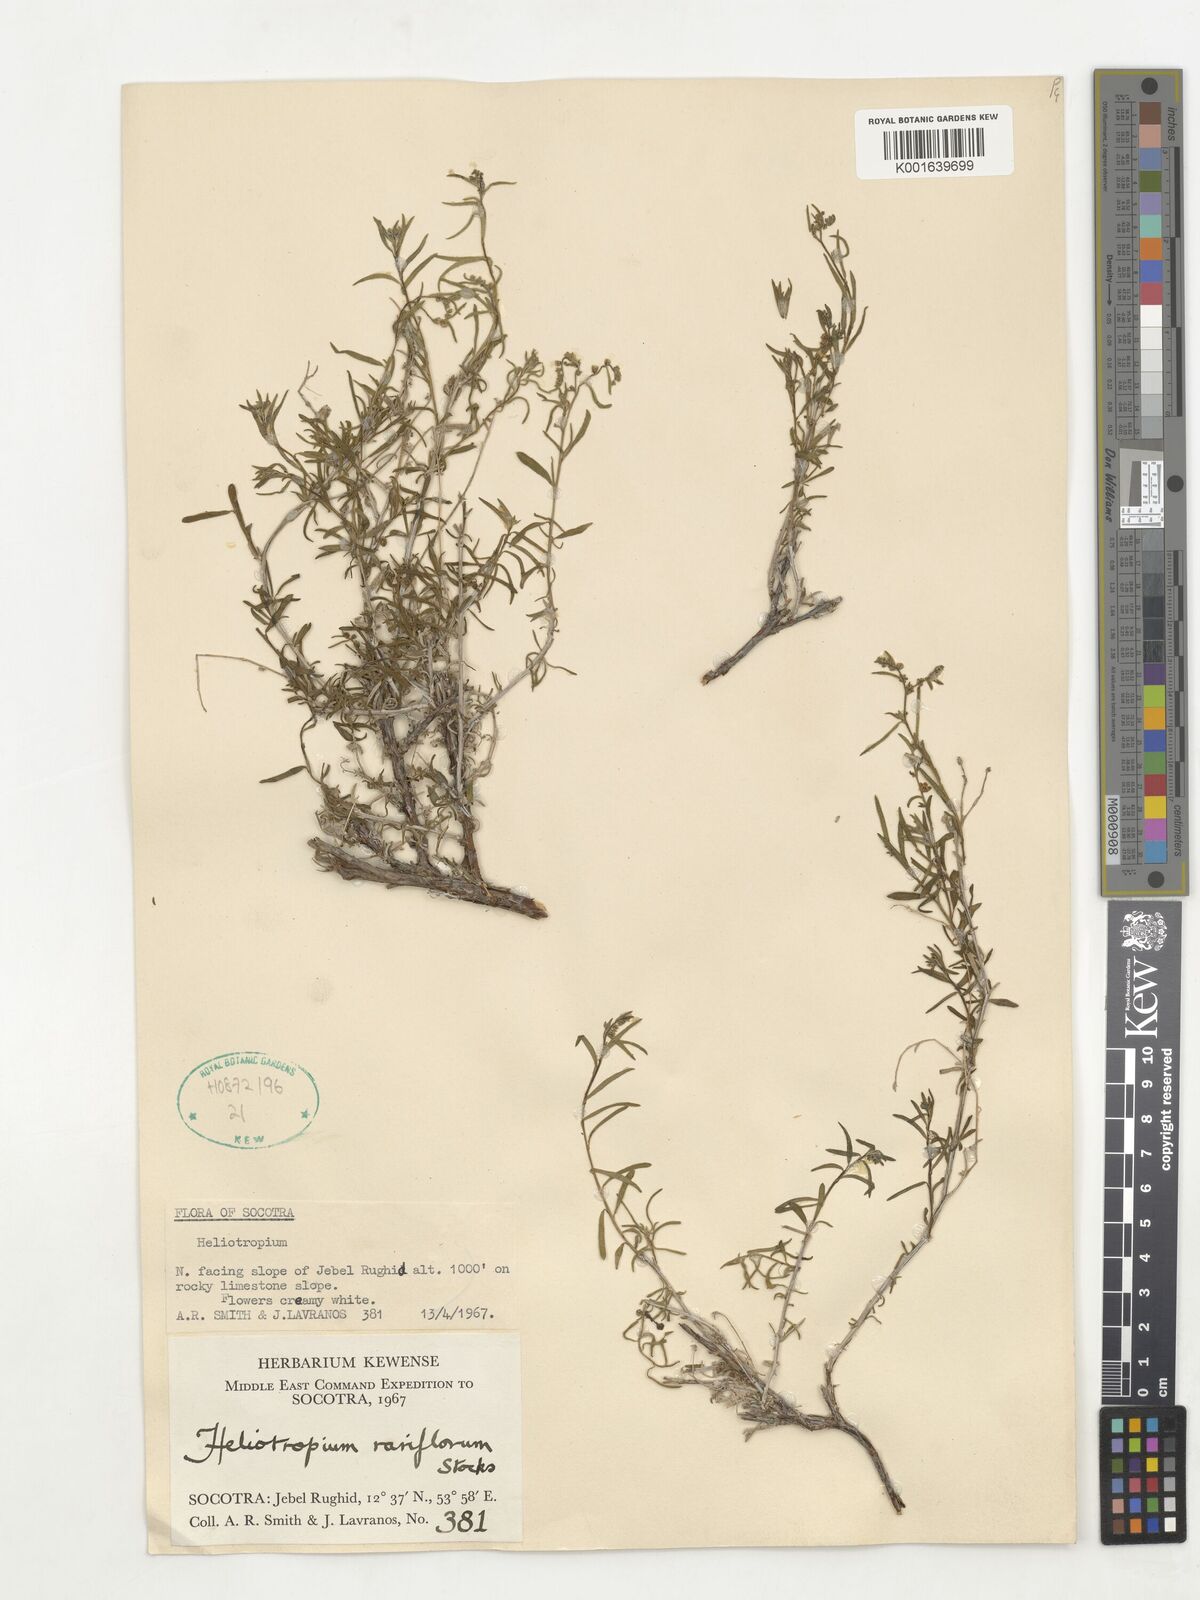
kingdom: Plantae
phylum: Tracheophyta
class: Magnoliopsida
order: Boraginales
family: Heliotropiaceae
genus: Euploca
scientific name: Euploca rariflora
